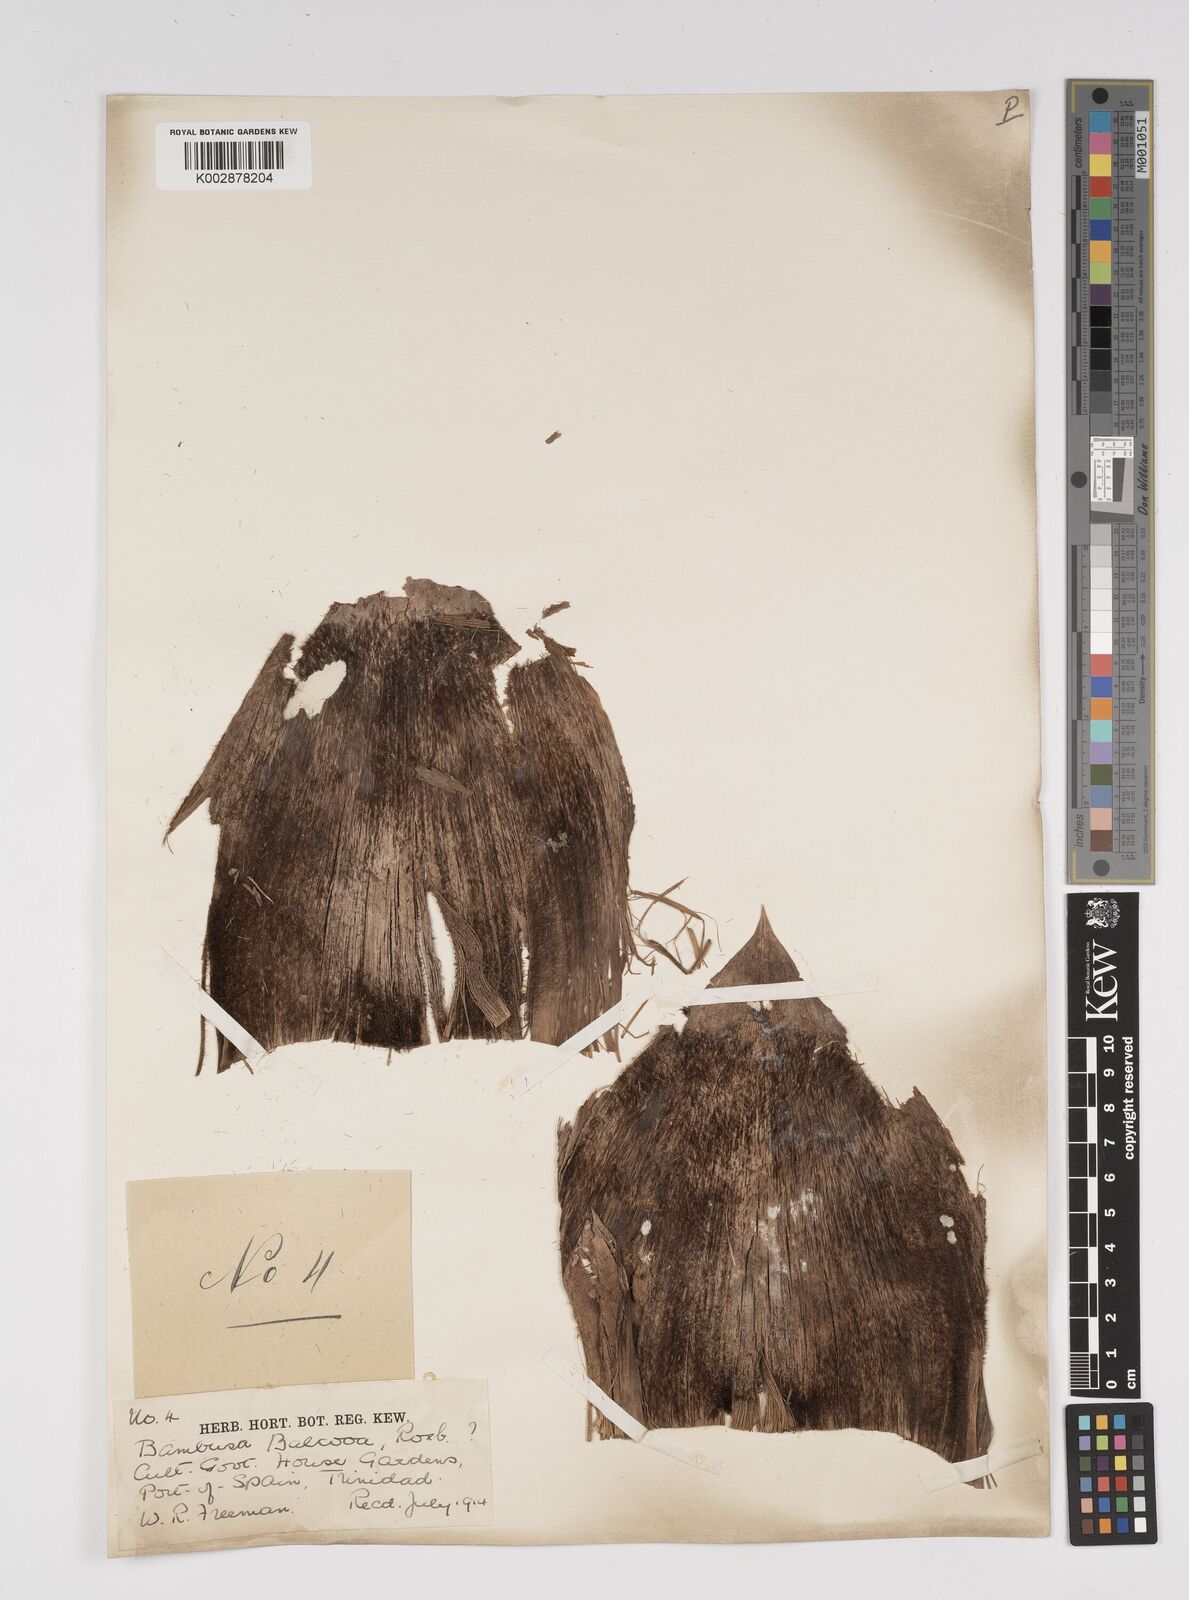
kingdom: Plantae
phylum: Tracheophyta
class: Liliopsida
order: Poales
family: Poaceae
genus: Bambusa
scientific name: Bambusa balcooa
